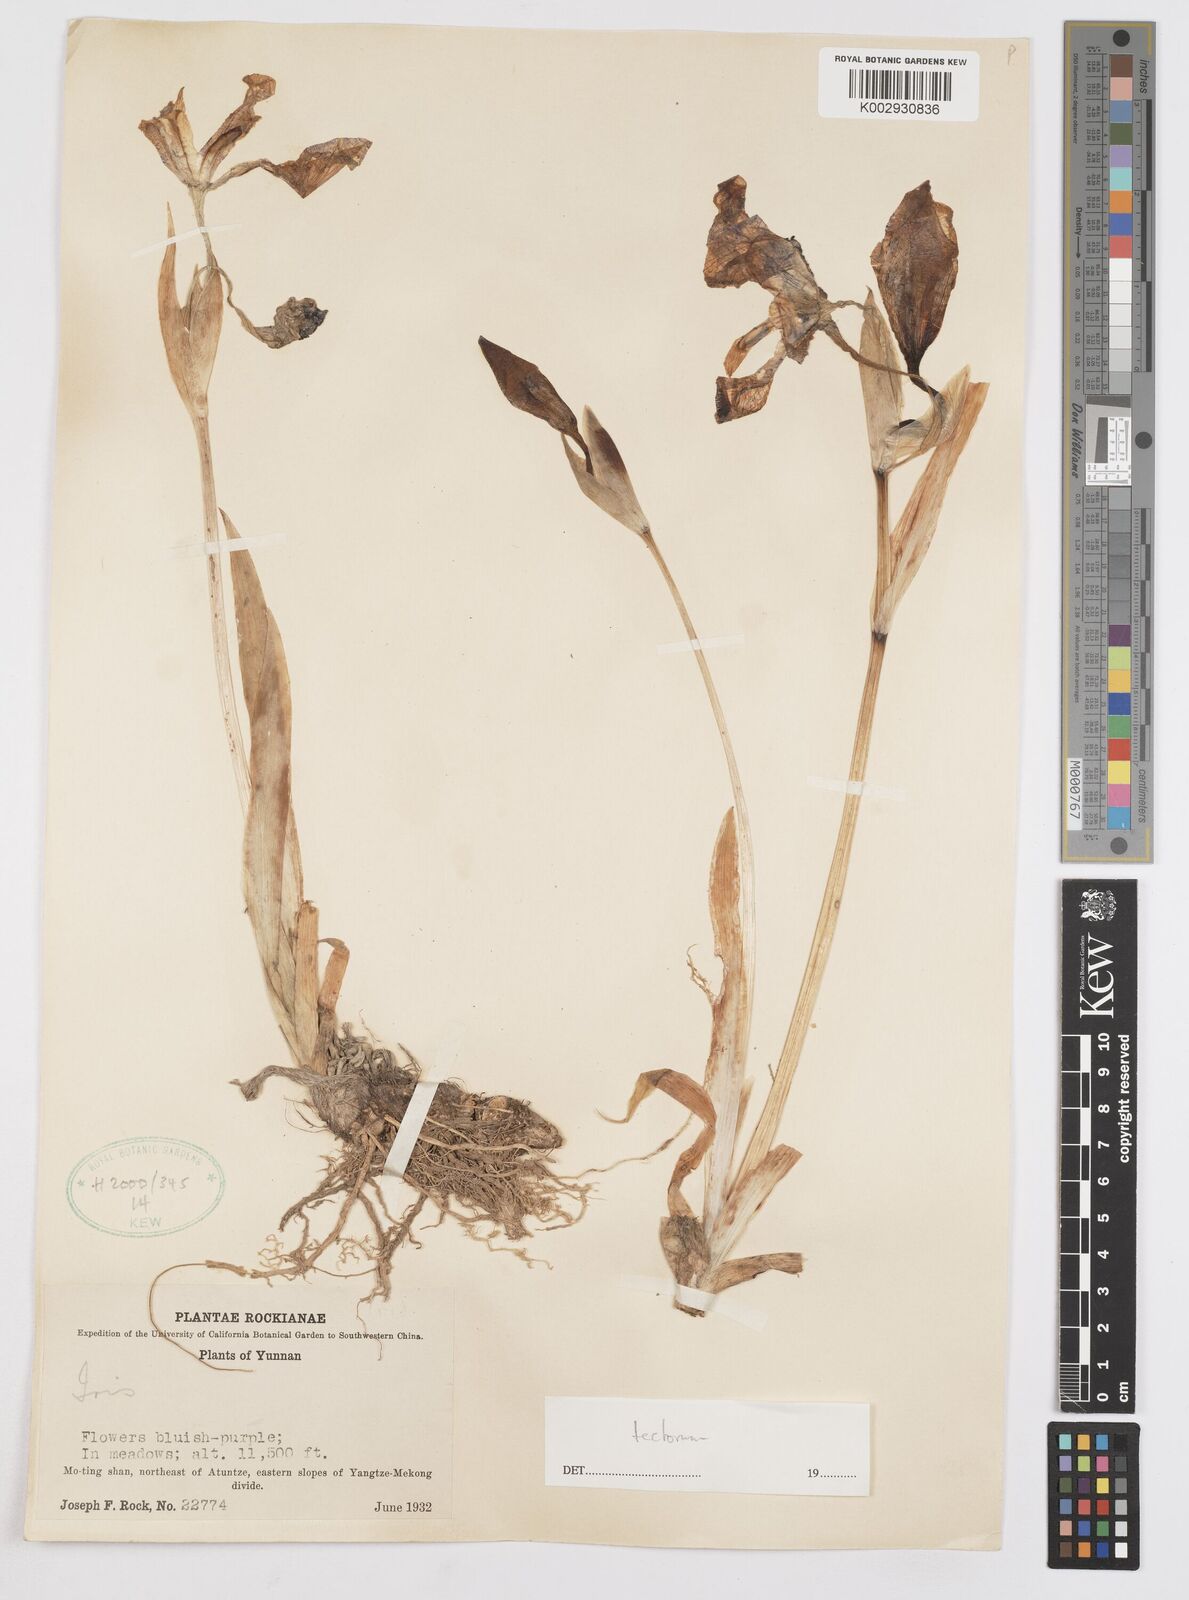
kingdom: Plantae
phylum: Tracheophyta
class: Liliopsida
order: Asparagales
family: Iridaceae
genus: Iris
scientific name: Iris tectorum
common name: Wall iris
